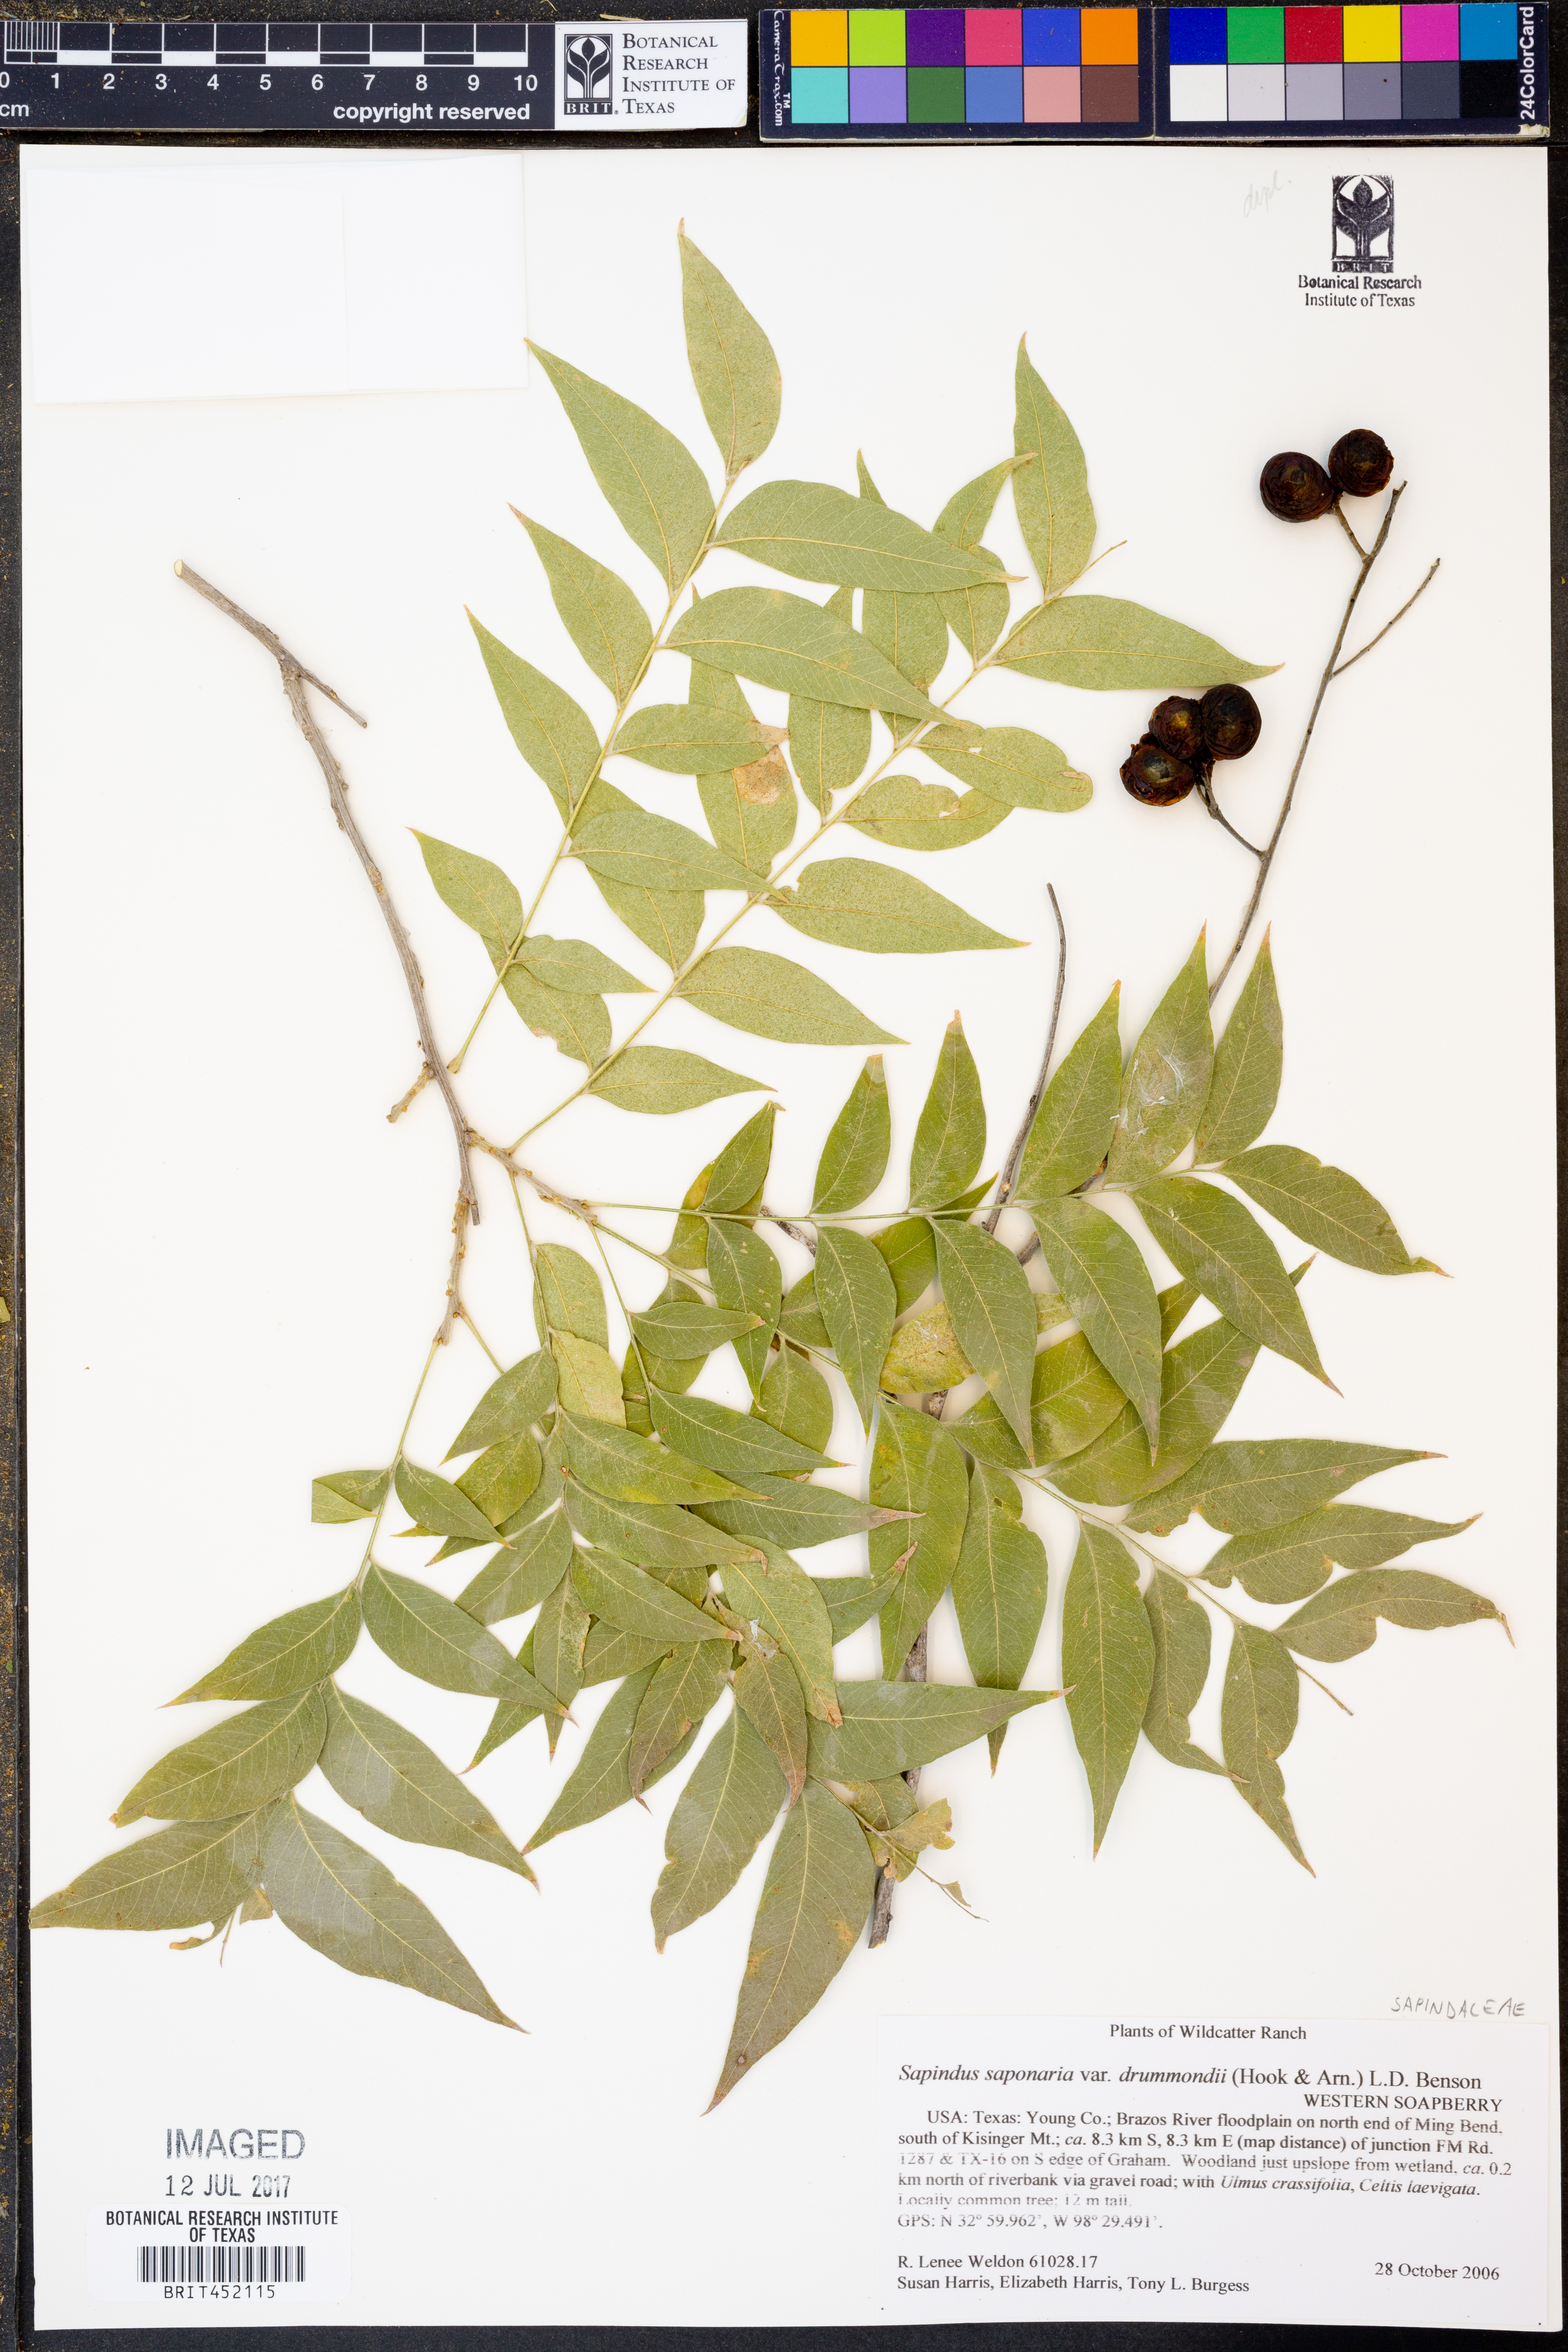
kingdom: Plantae
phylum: Tracheophyta
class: Magnoliopsida
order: Sapindales
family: Sapindaceae
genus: Sapindus
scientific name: Sapindus drummondii
